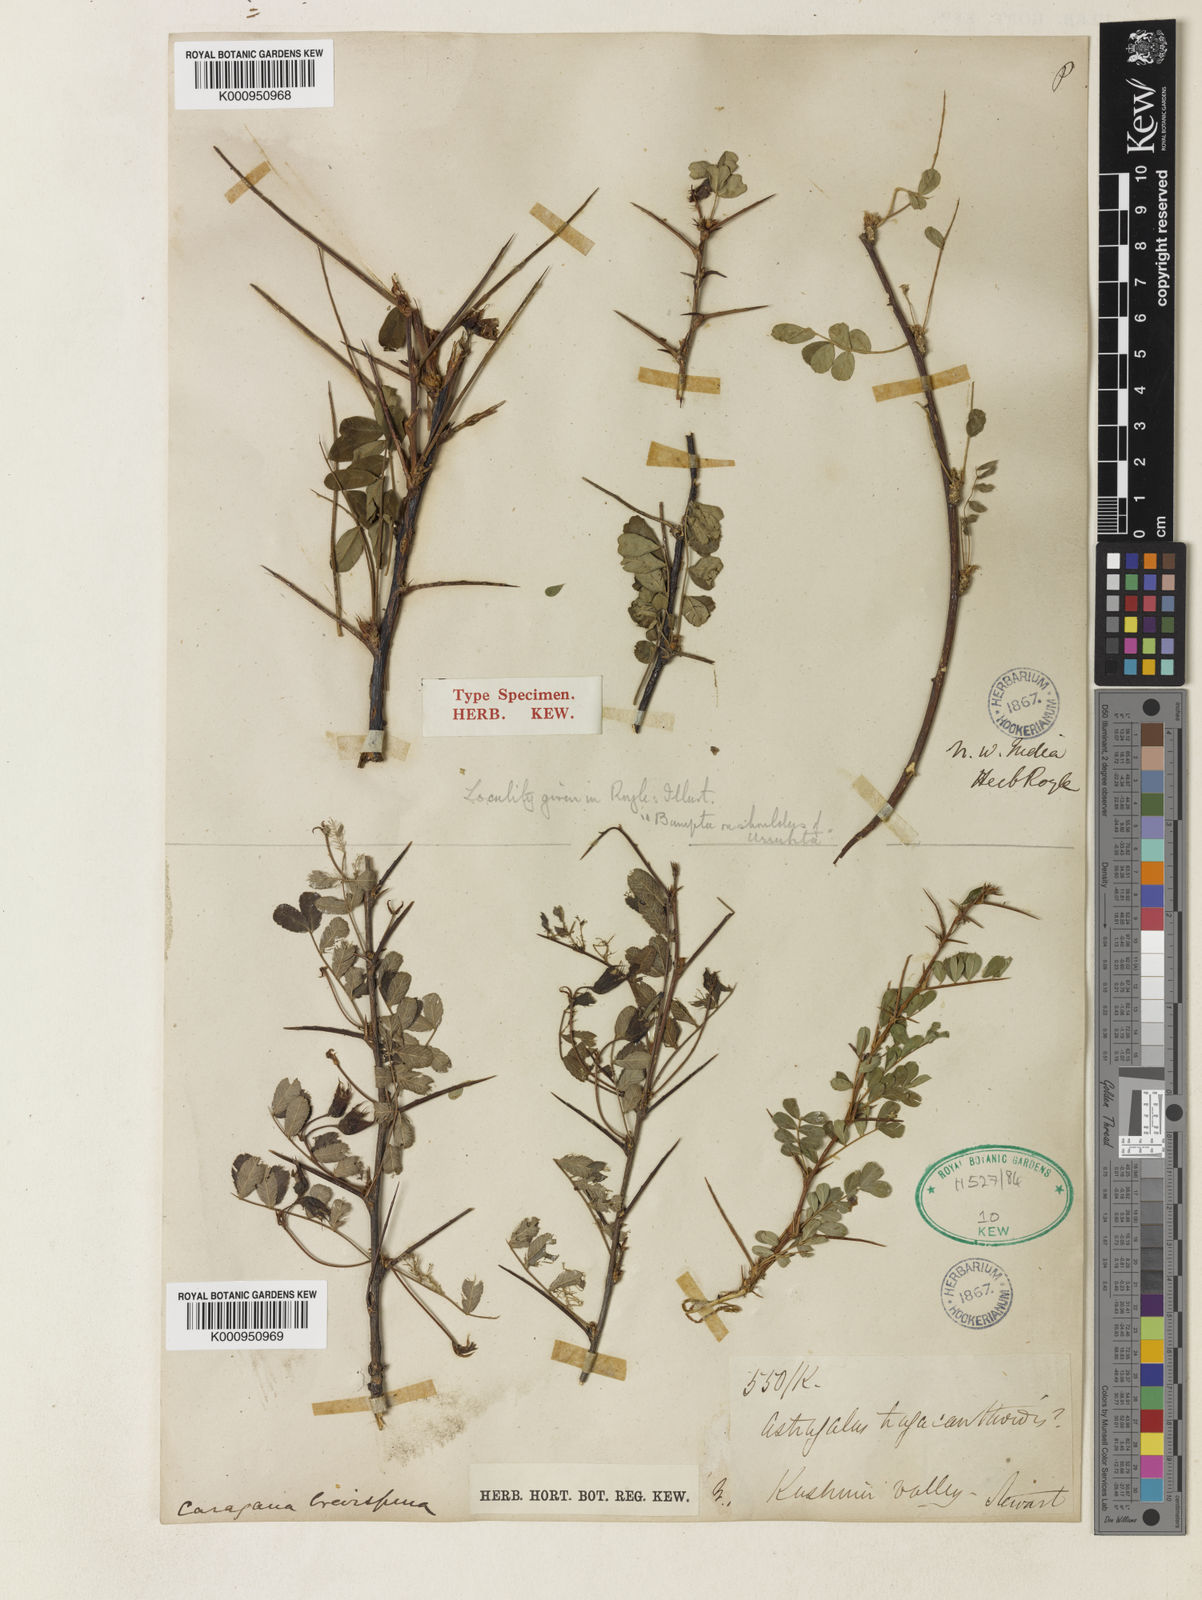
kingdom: Plantae
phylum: Tracheophyta
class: Magnoliopsida
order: Fabales
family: Fabaceae
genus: Caragana
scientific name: Caragana brevispina
